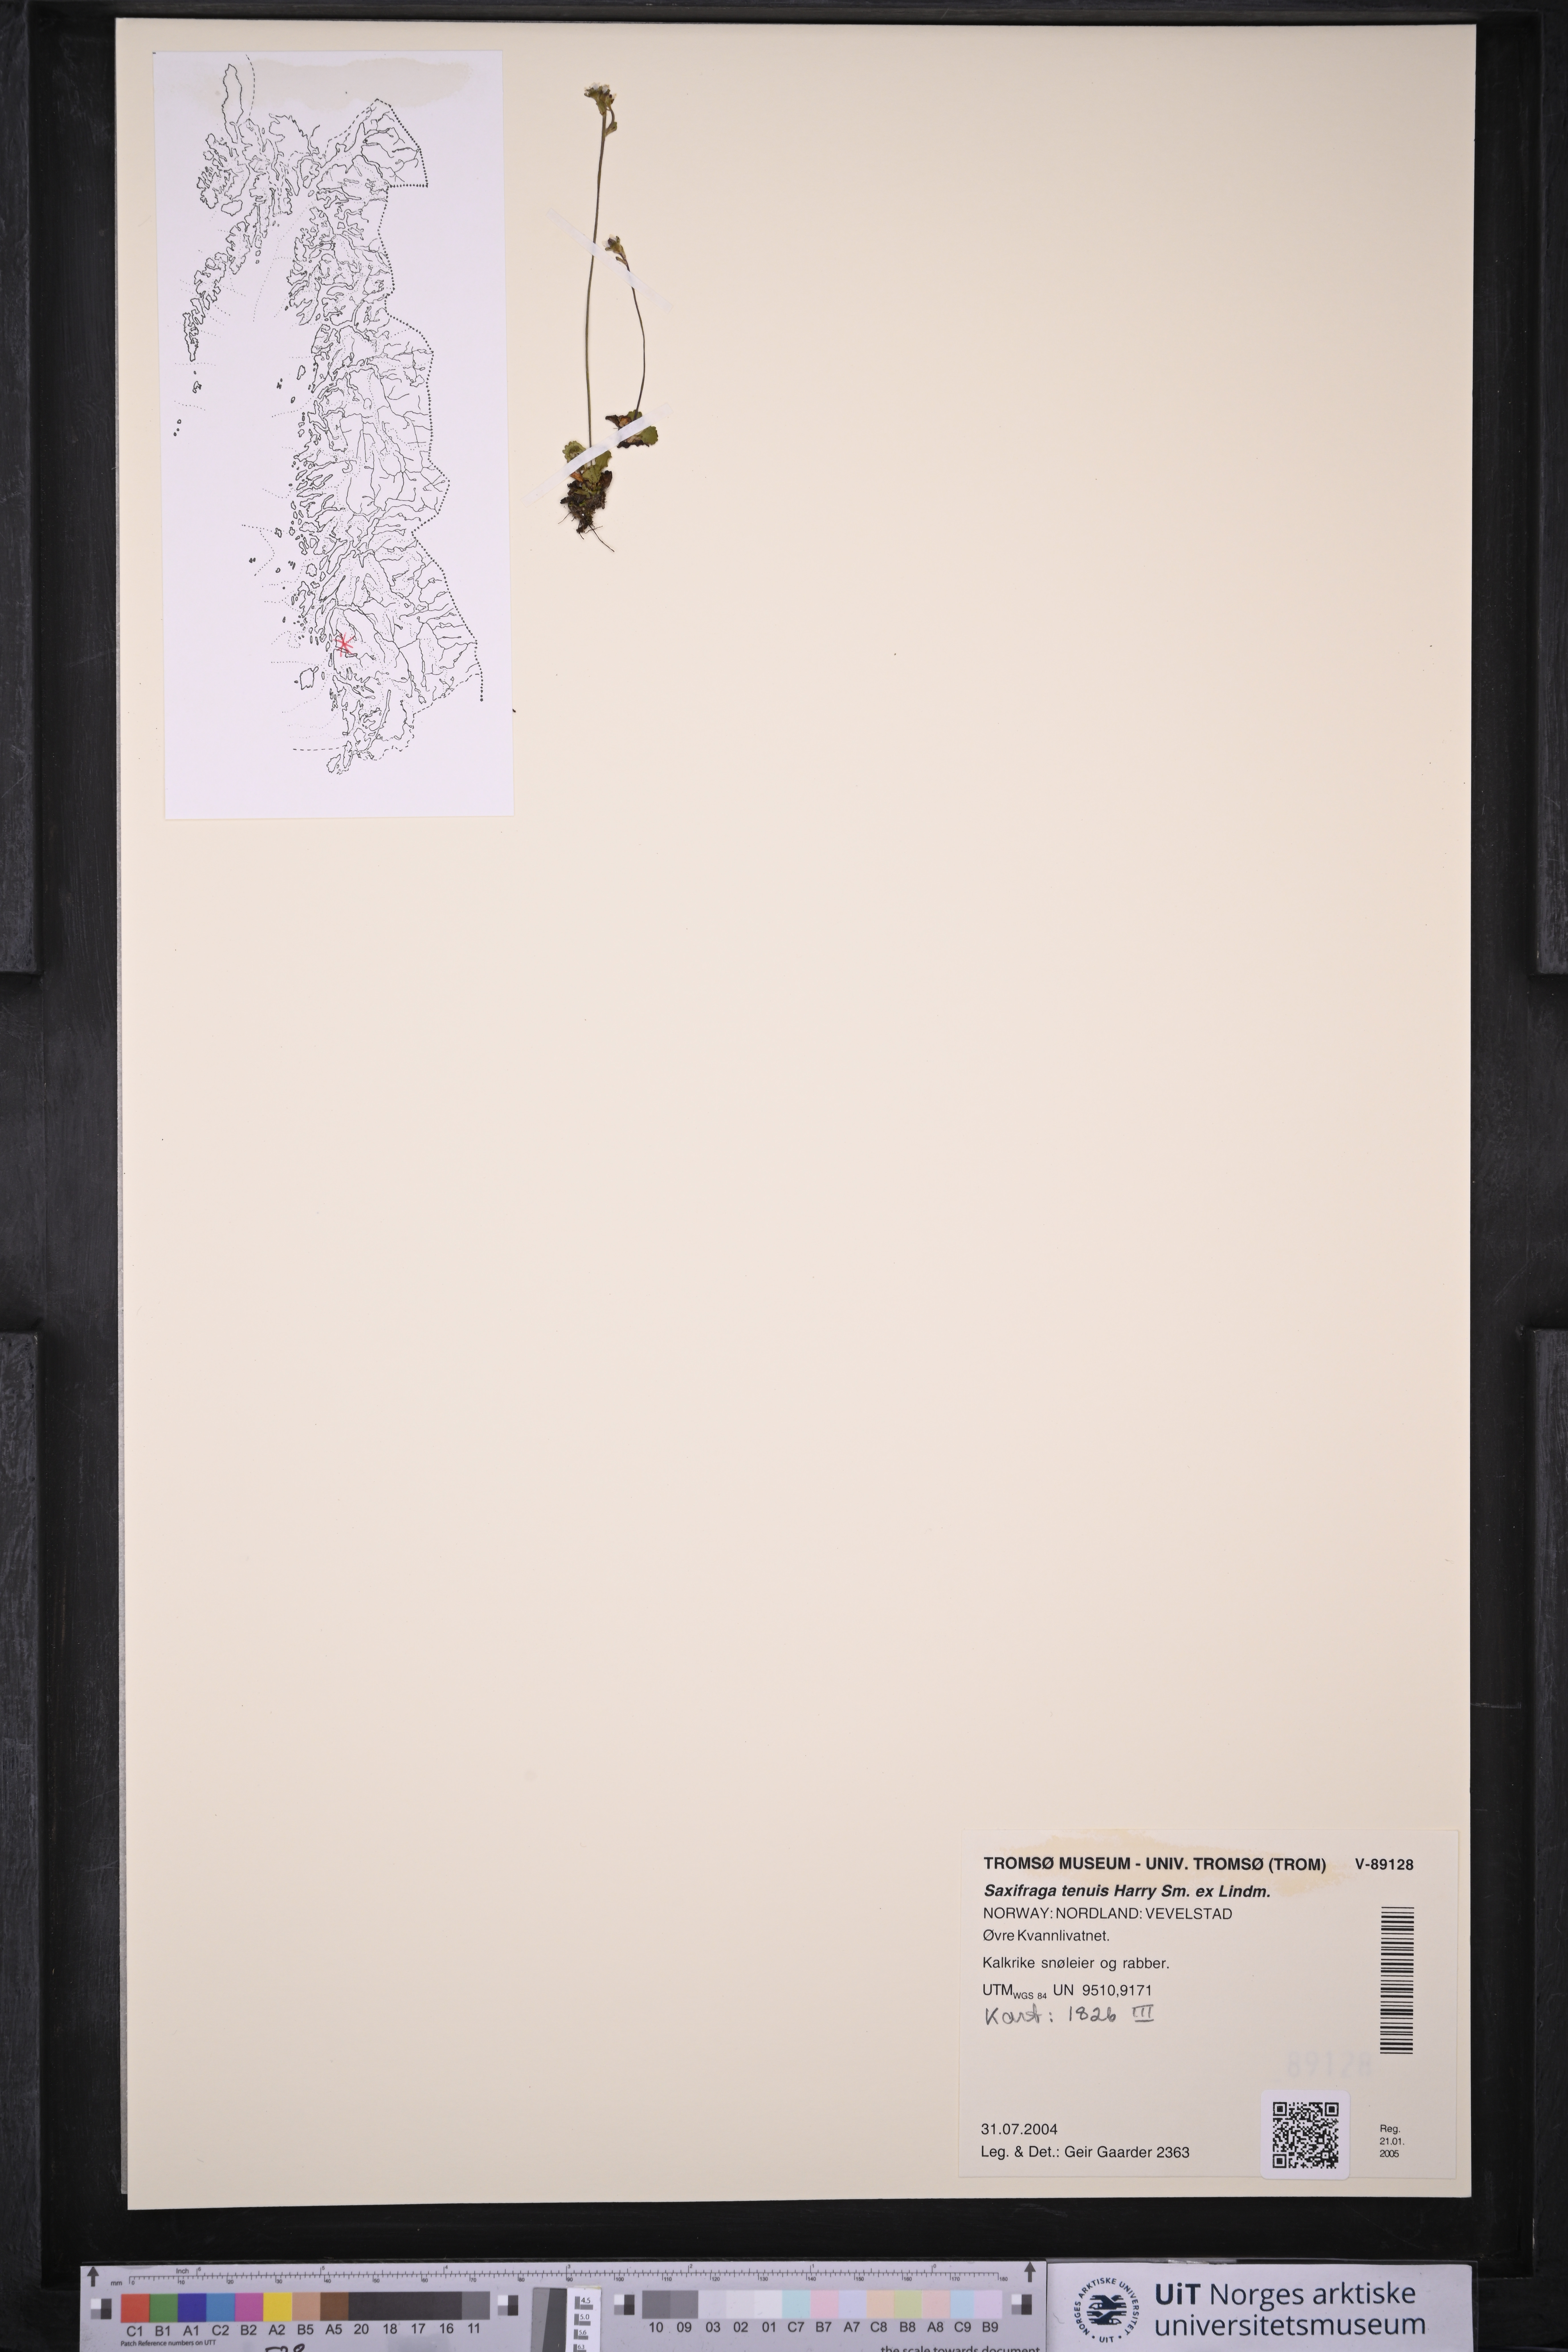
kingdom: Plantae
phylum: Tracheophyta
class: Magnoliopsida
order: Saxifragales
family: Saxifragaceae
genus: Micranthes
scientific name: Micranthes tenuis
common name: Ottertail pass saxifrage
